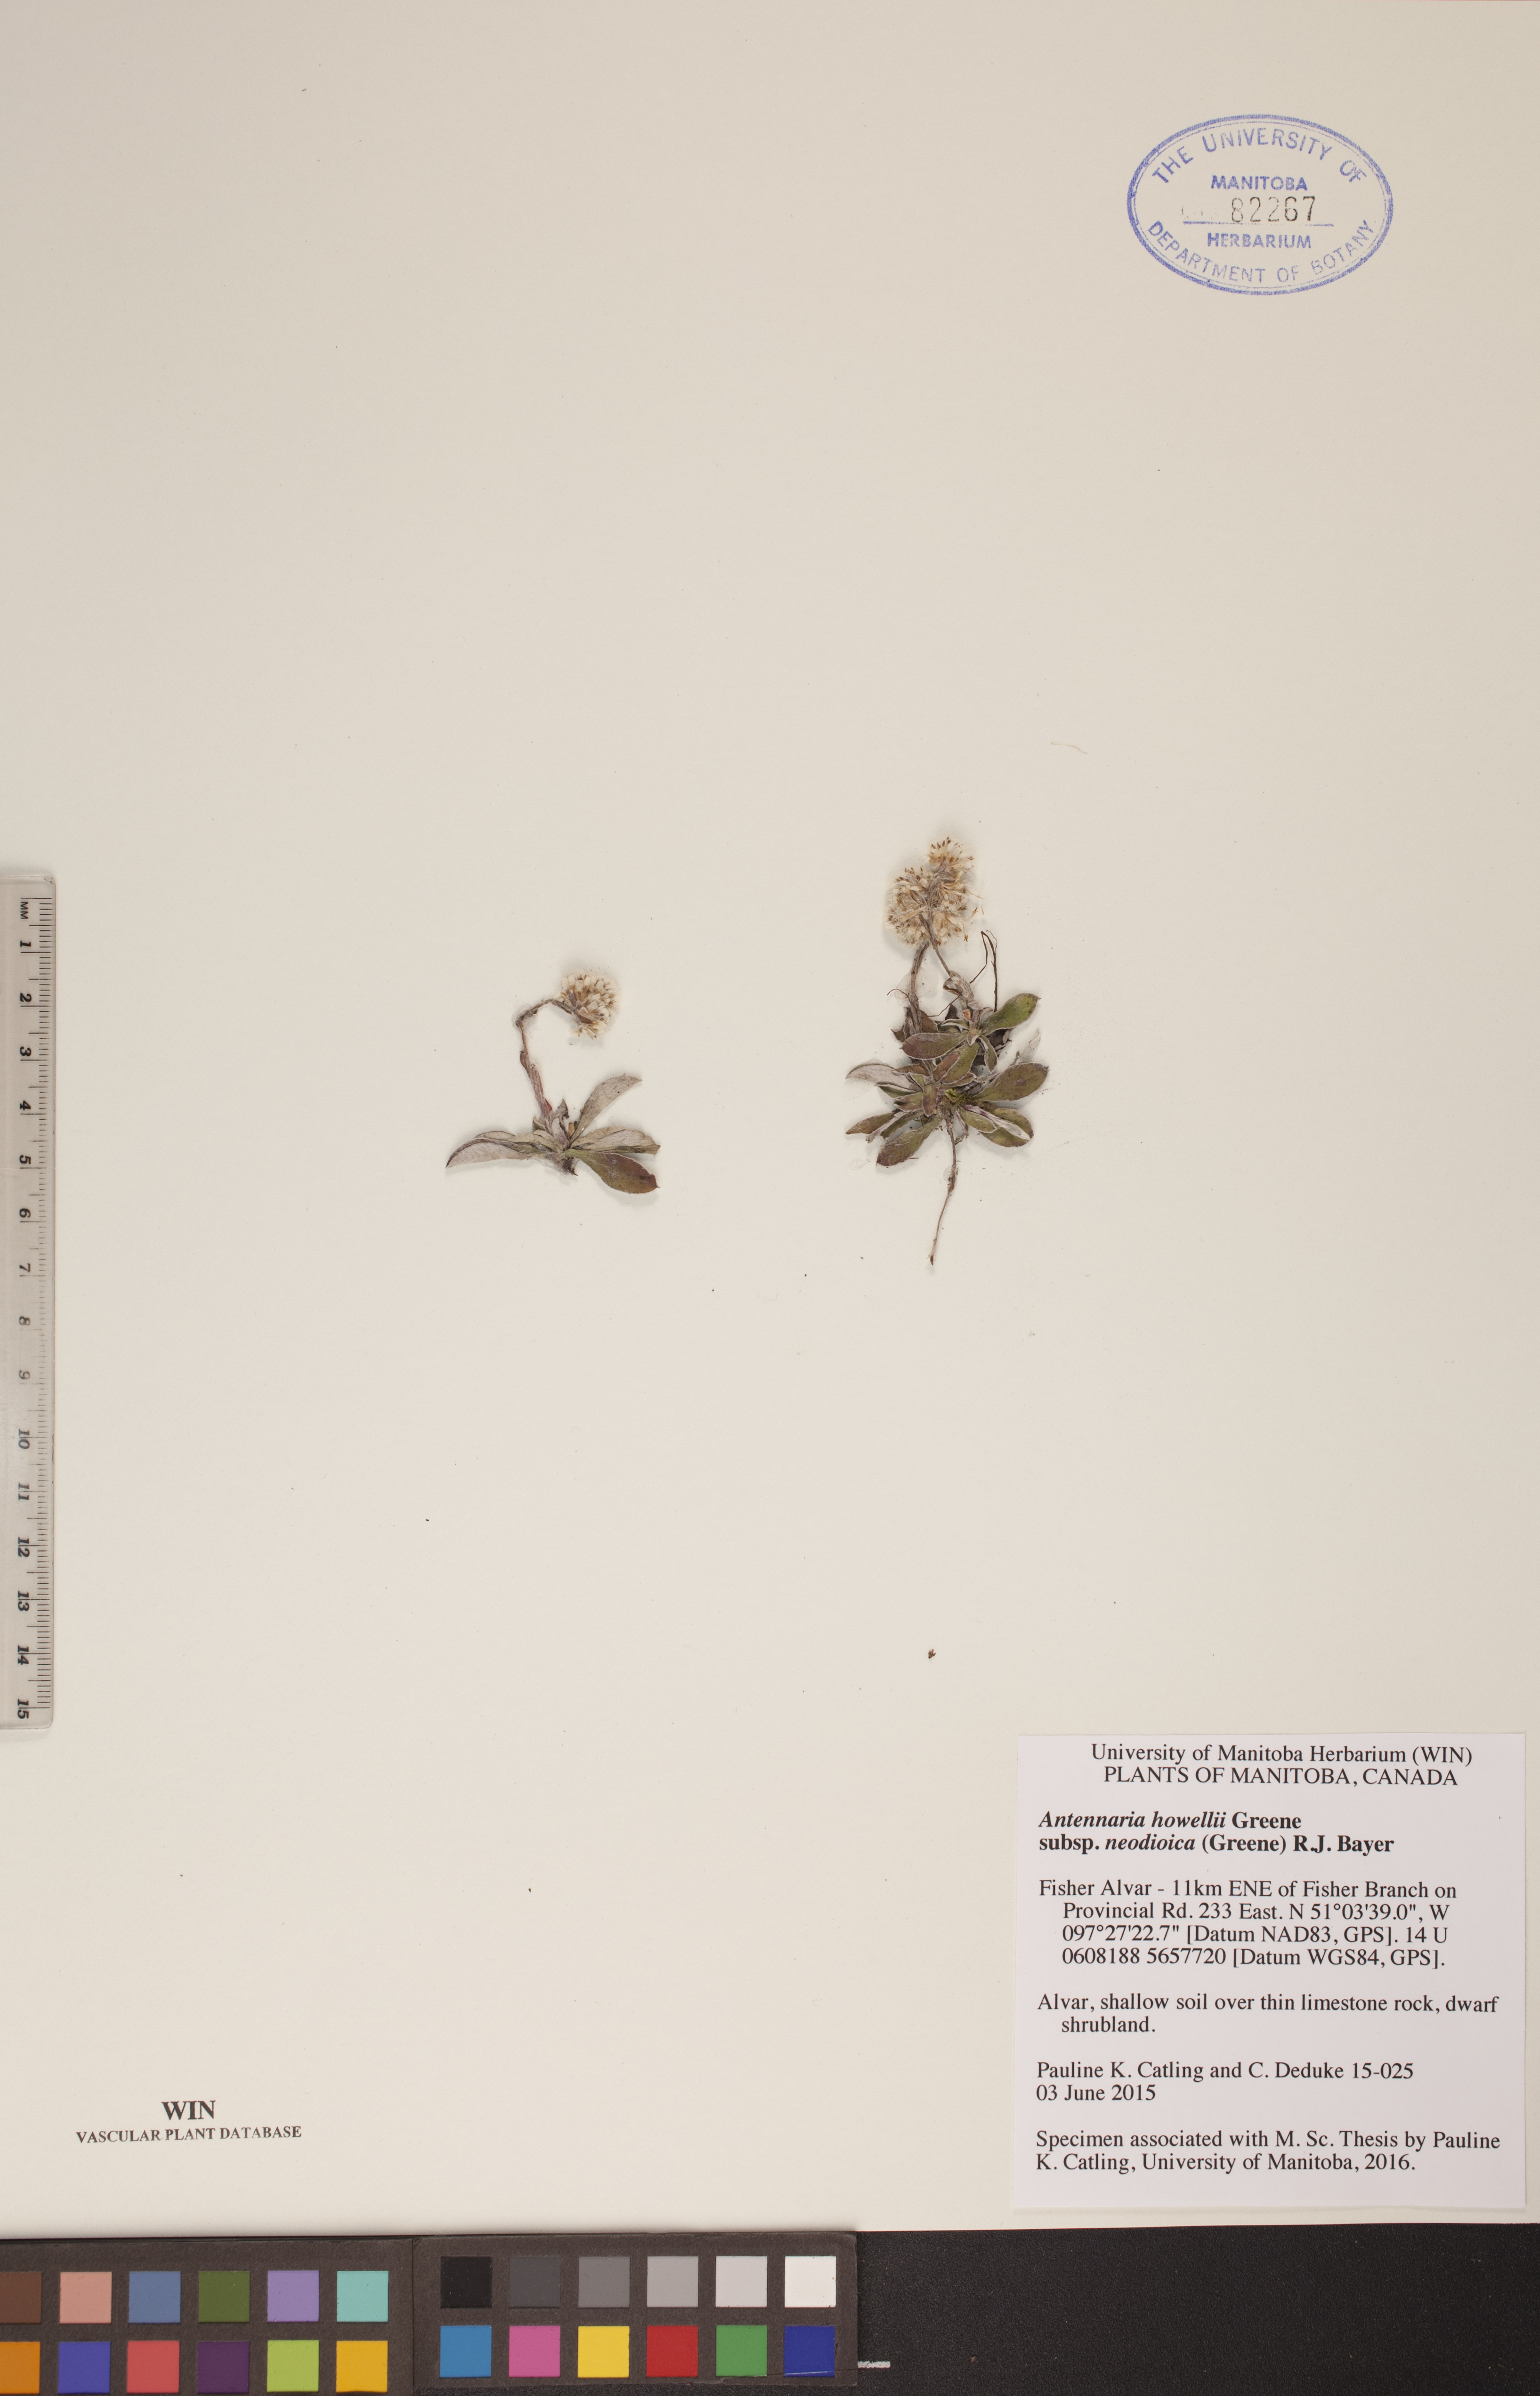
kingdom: Plantae
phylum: Tracheophyta
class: Magnoliopsida
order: Asterales
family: Asteraceae
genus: Antennaria
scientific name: Antennaria howellii
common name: Howell's pussytoes
